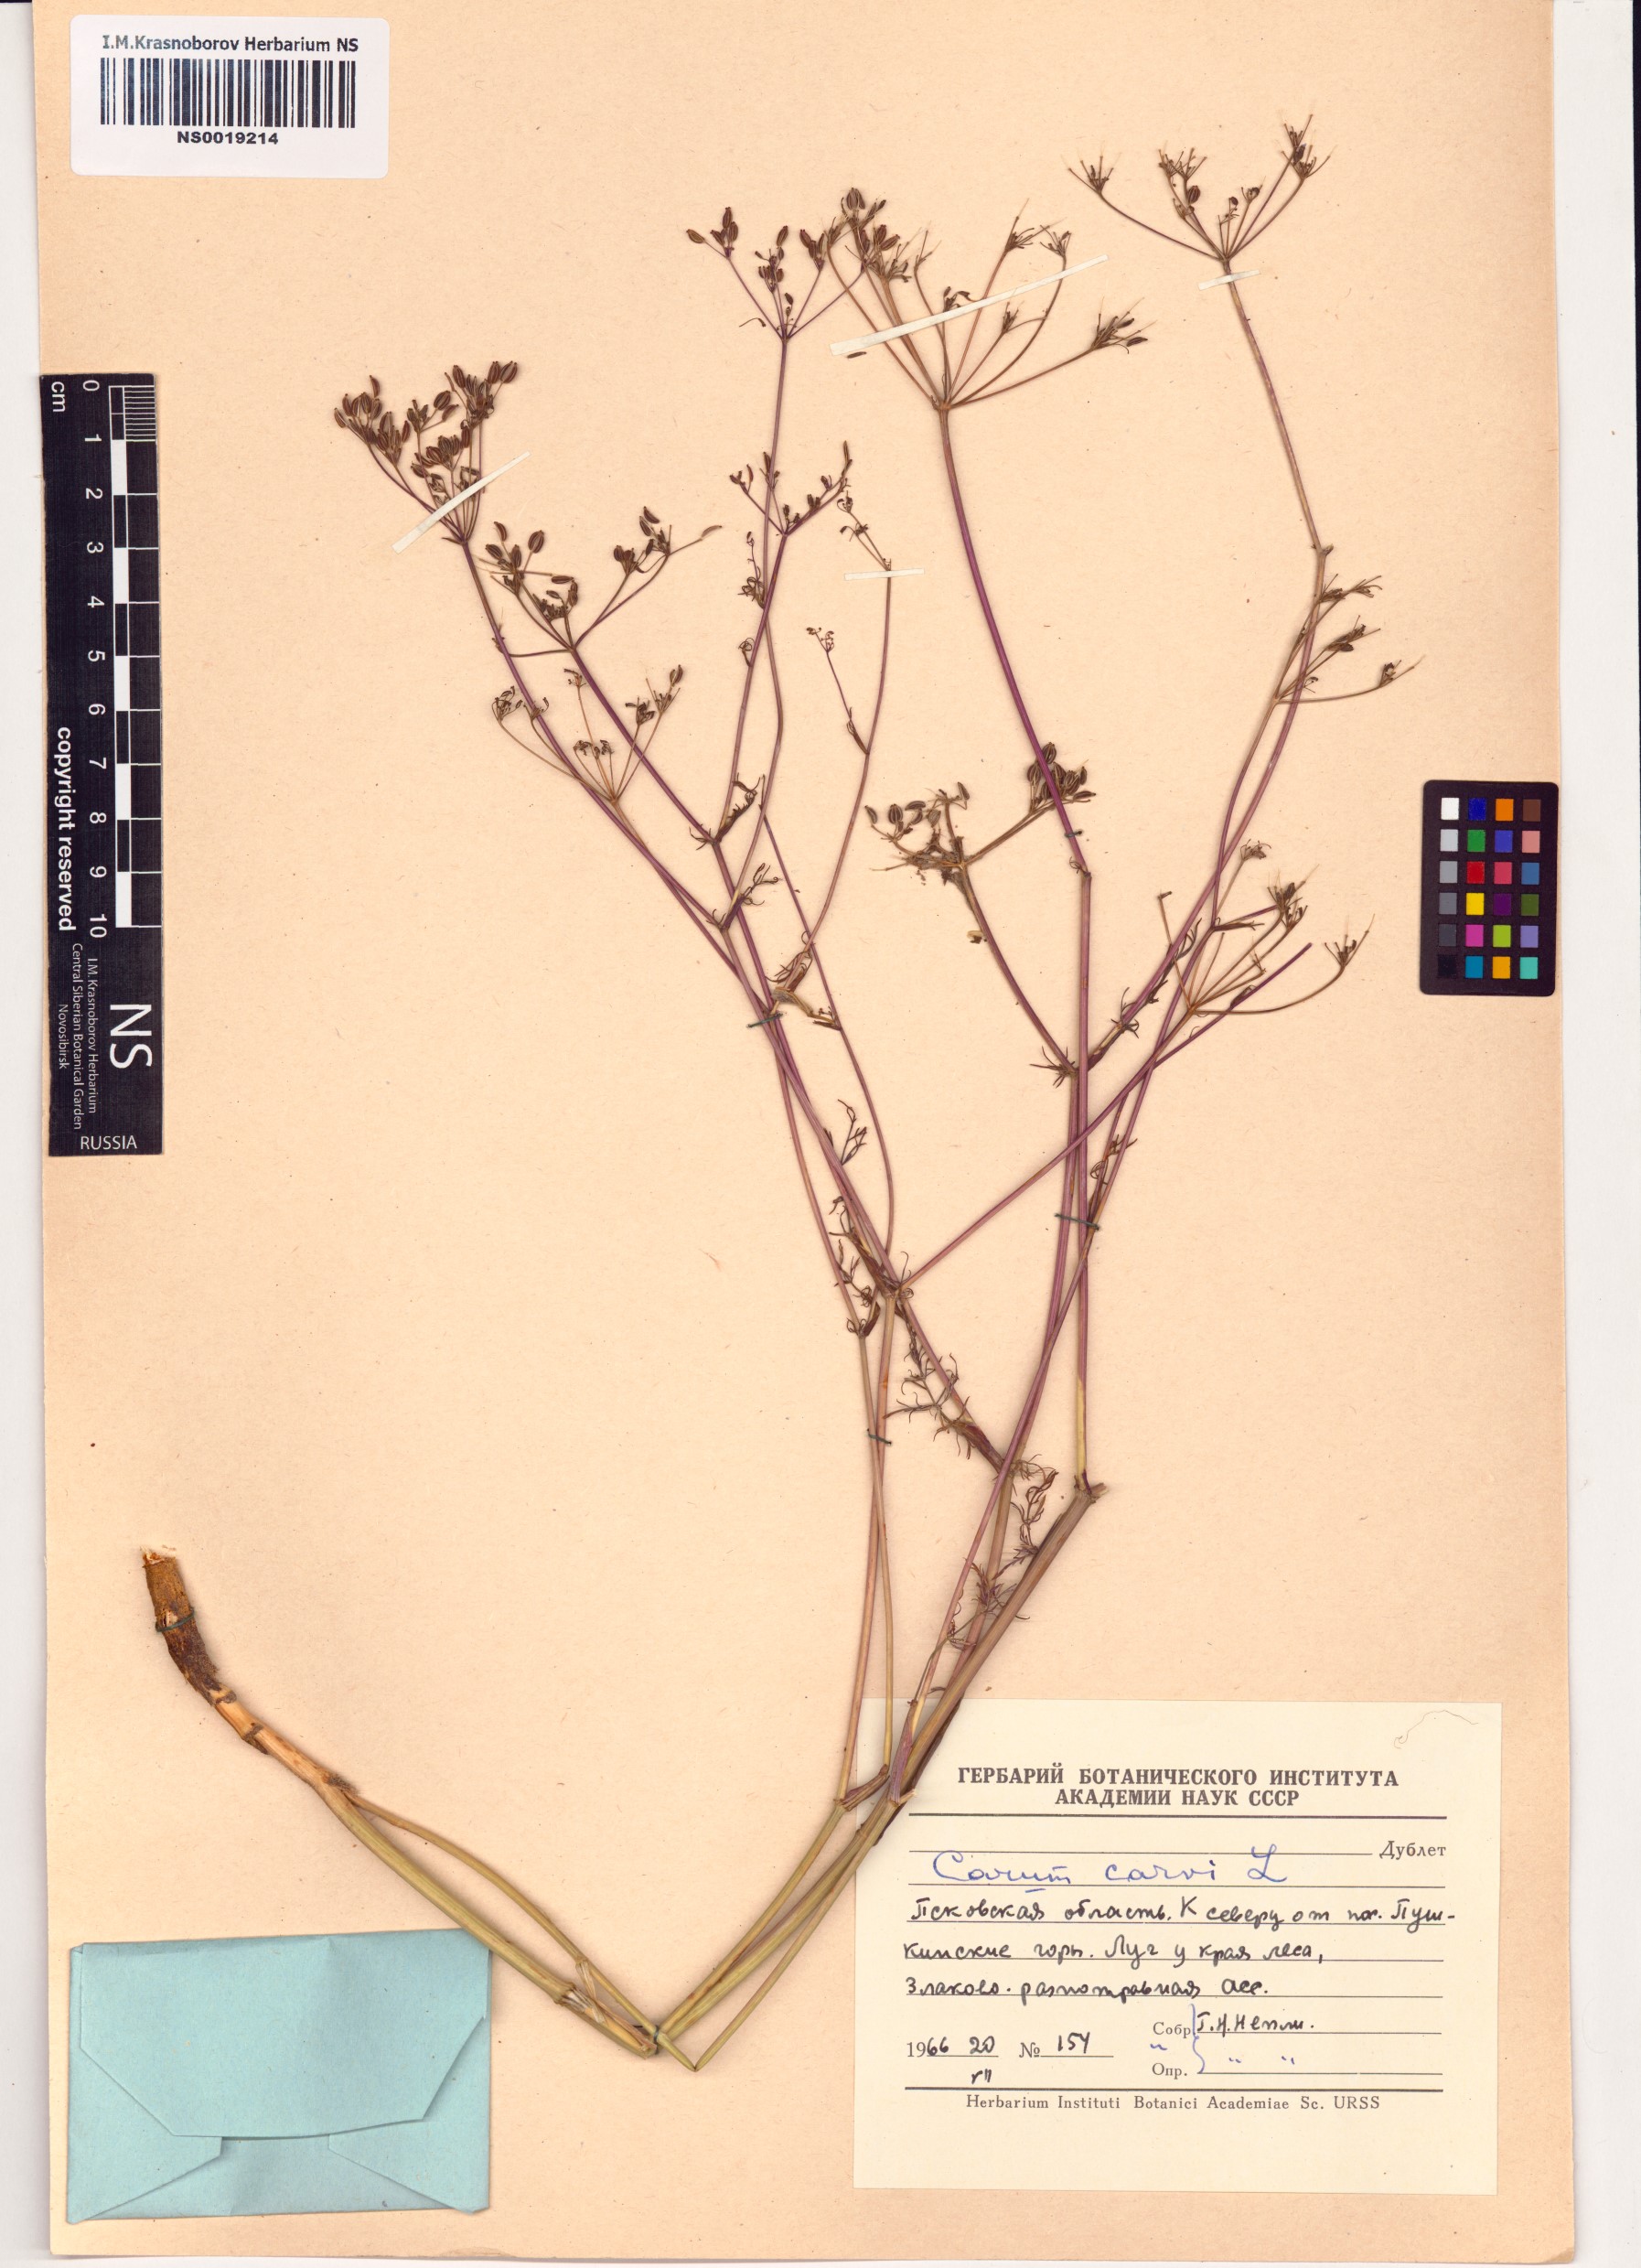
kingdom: Plantae
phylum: Tracheophyta
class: Magnoliopsida
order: Apiales
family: Apiaceae
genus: Carum
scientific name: Carum carvi
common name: Caraway
